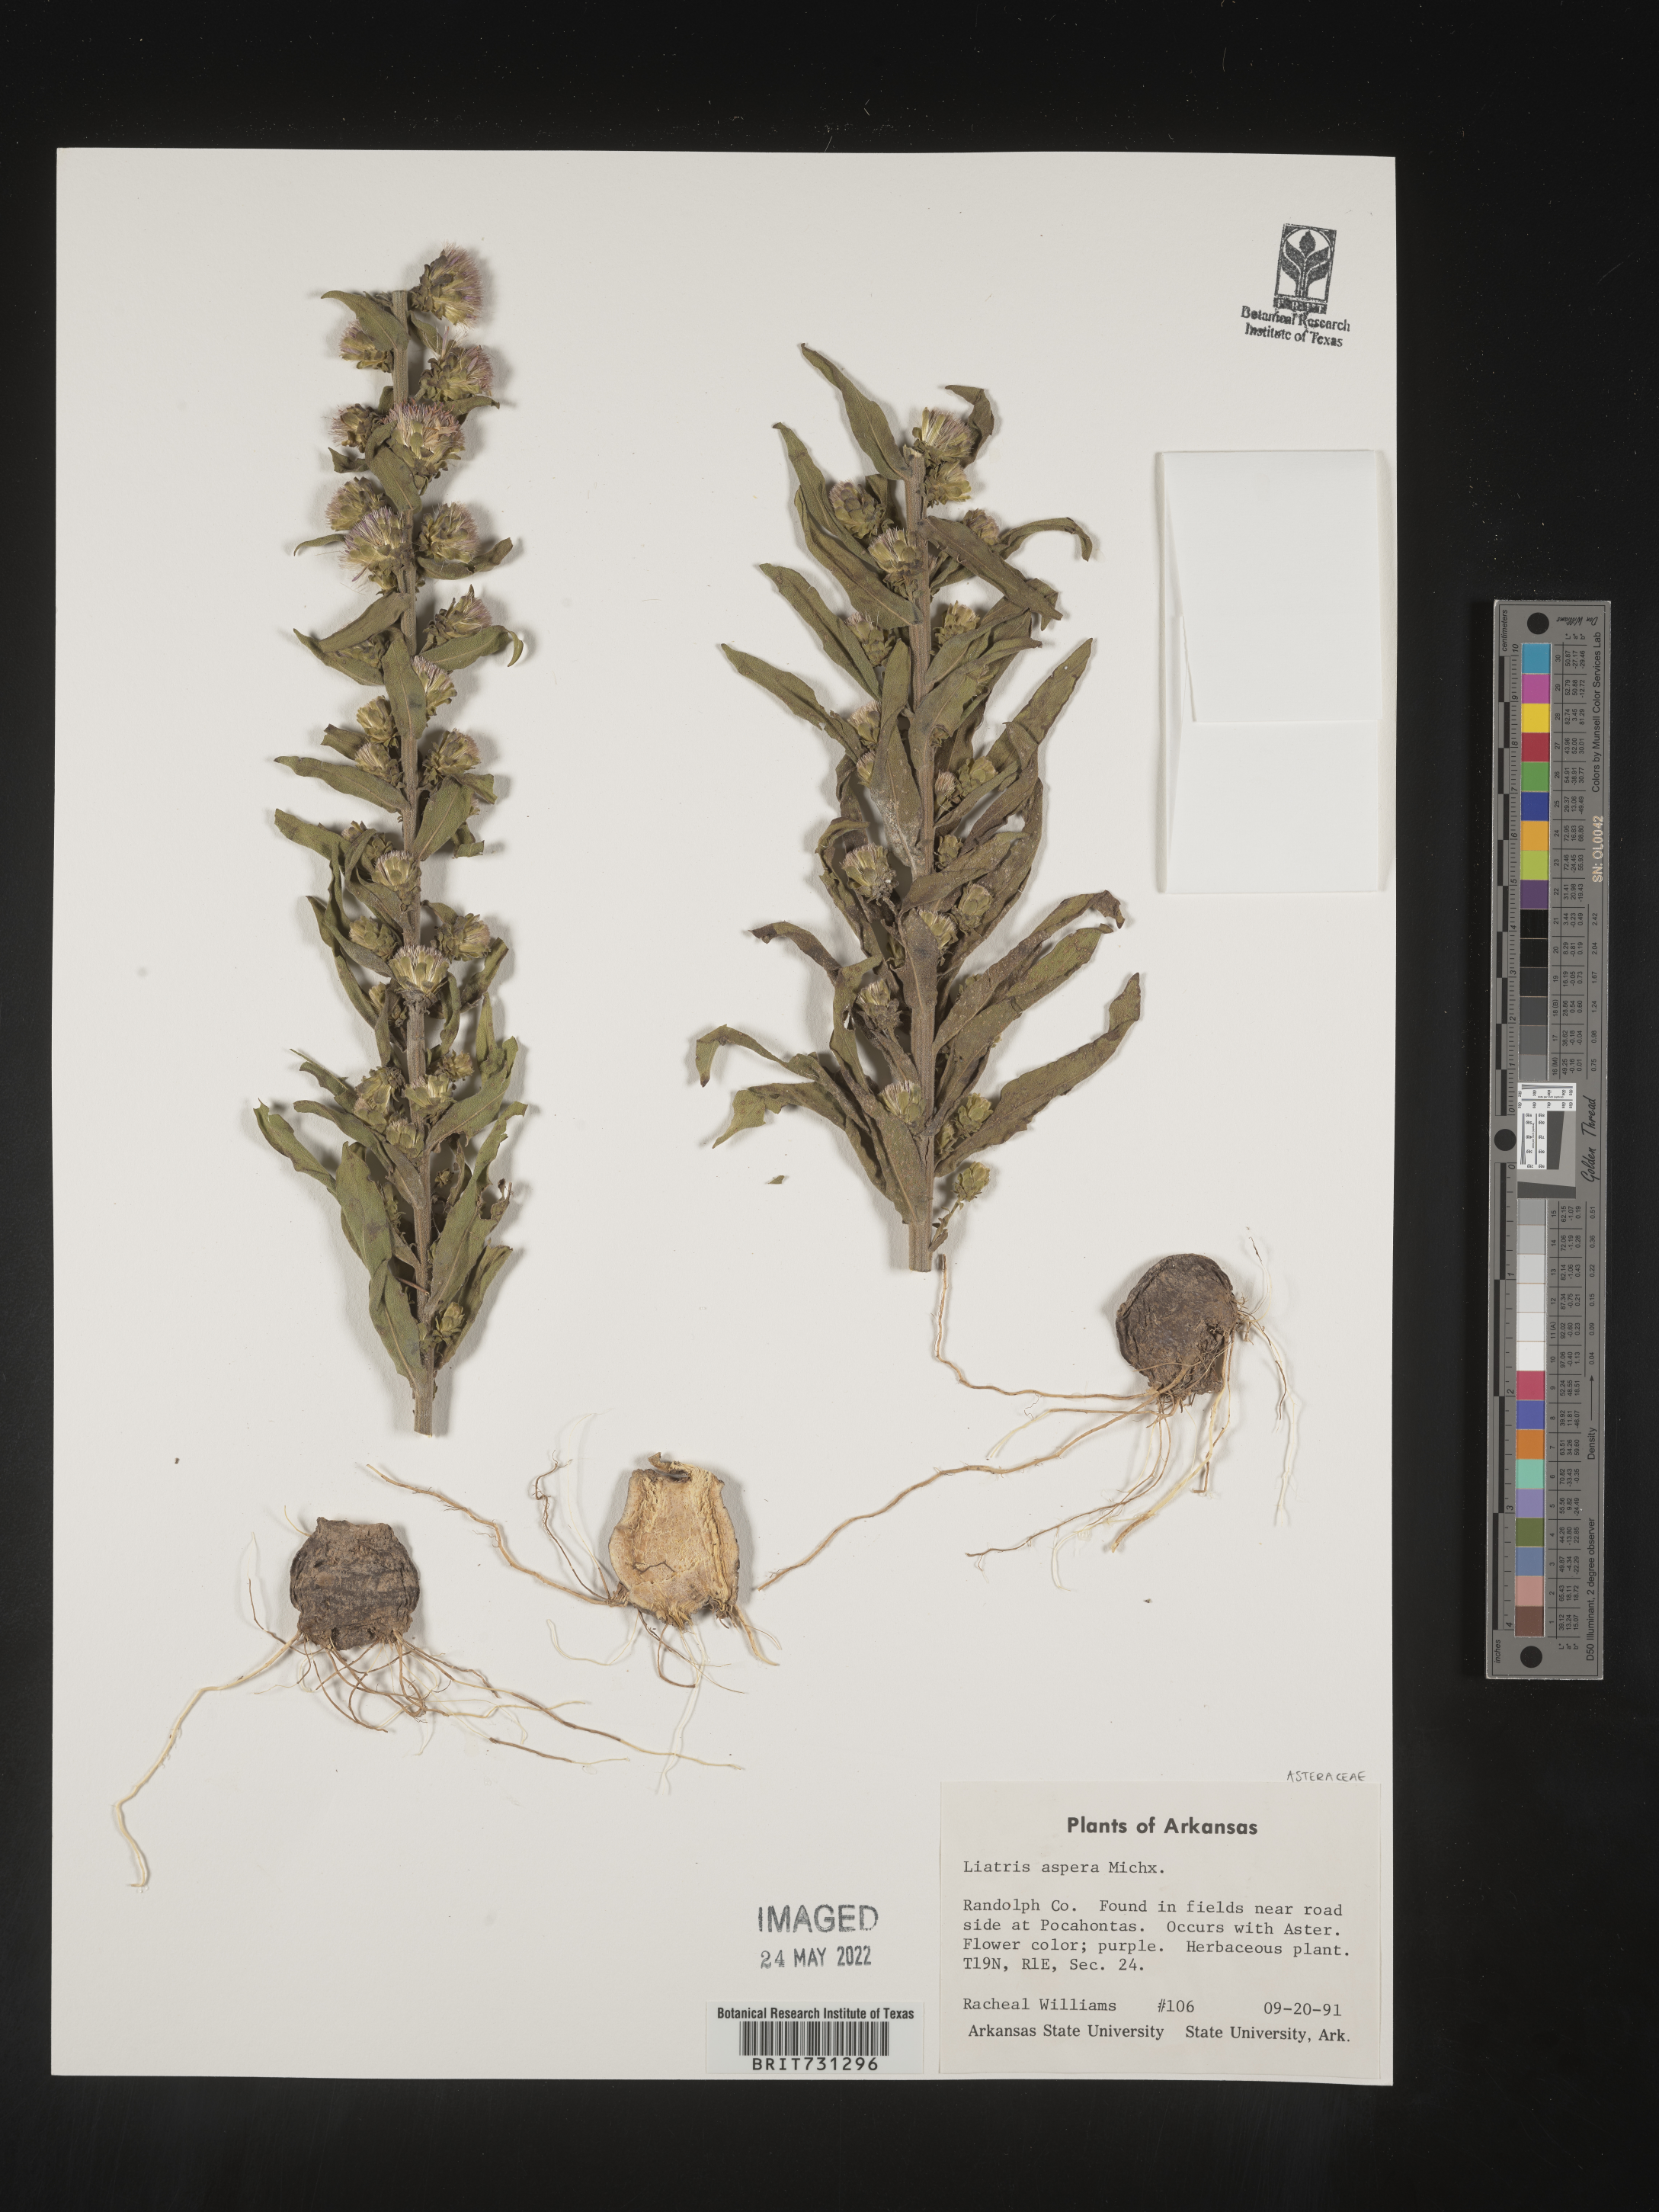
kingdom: Plantae
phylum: Tracheophyta
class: Magnoliopsida
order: Asterales
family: Asteraceae
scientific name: Asteraceae
